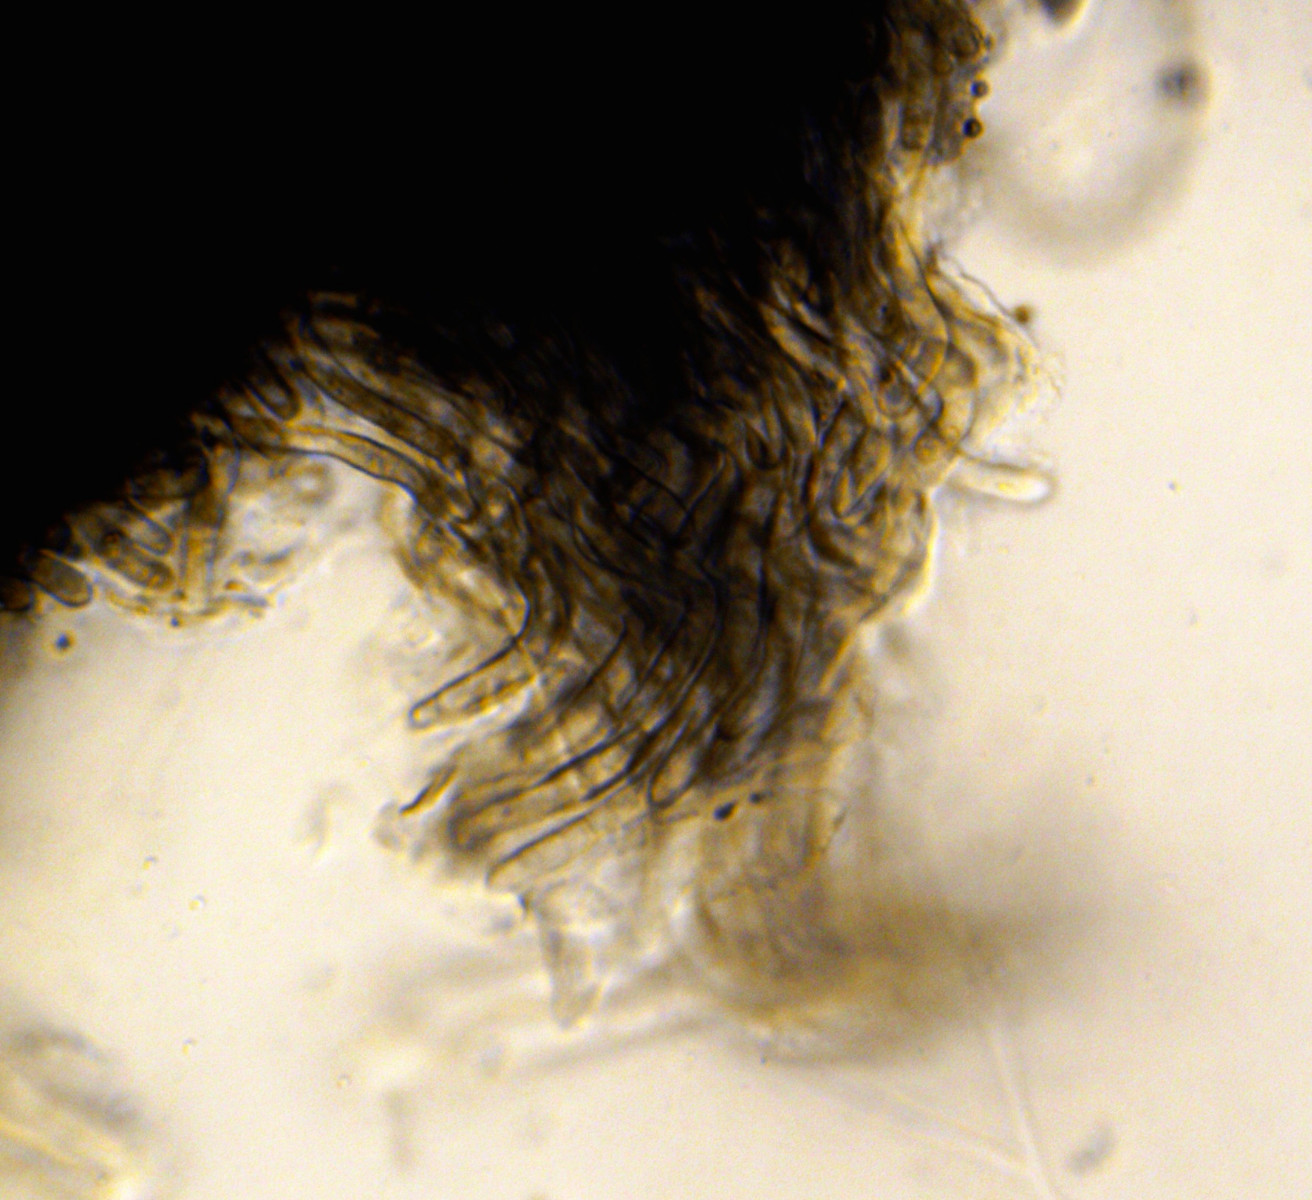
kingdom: Fungi
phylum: Ascomycota
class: Leotiomycetes
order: Helotiales
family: Rutstroemiaceae
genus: Rutstroemia
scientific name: Rutstroemia
